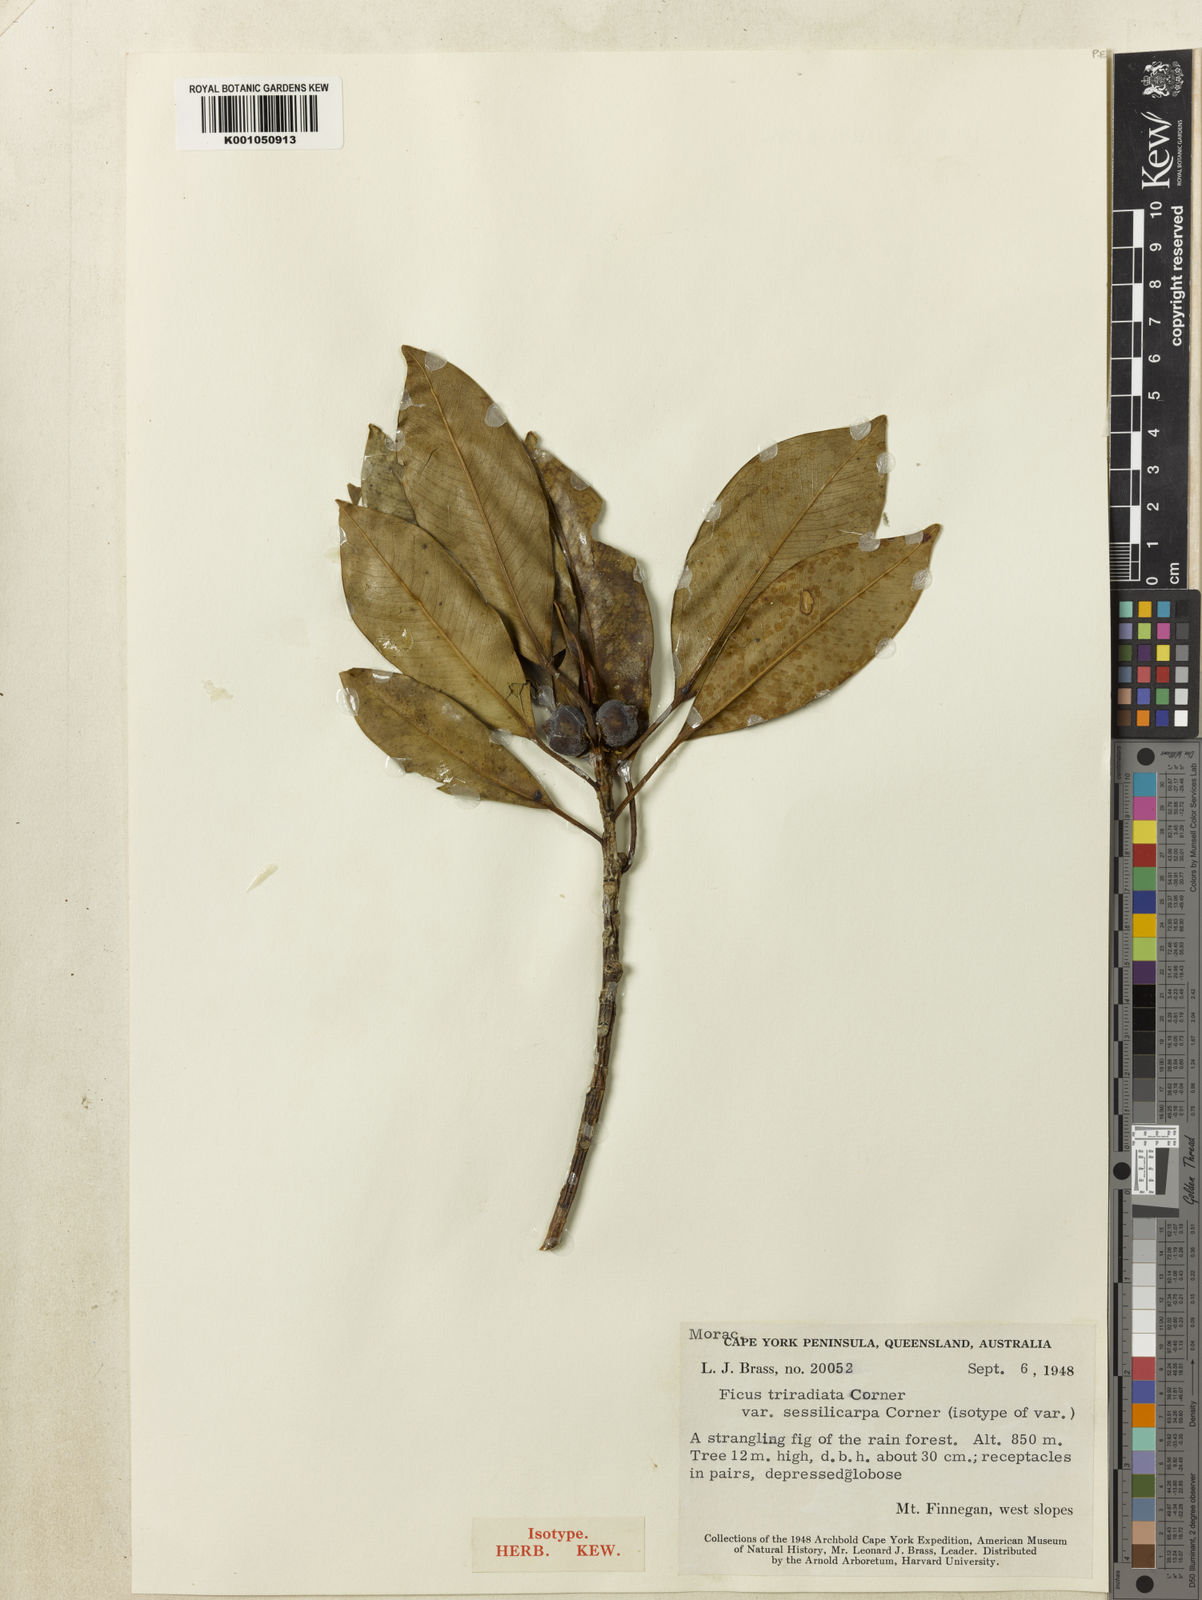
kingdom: Plantae
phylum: Tracheophyta
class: Magnoliopsida
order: Rosales
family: Moraceae
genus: Ficus
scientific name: Ficus triradiata
